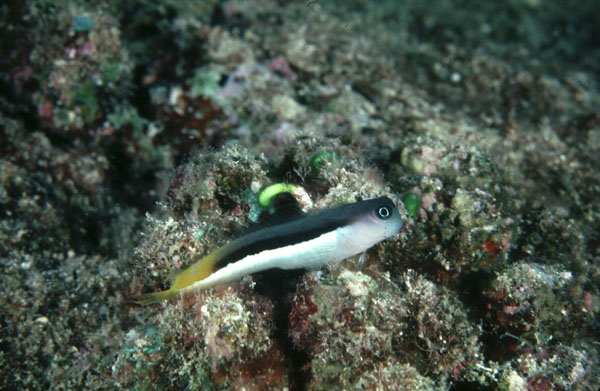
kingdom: Animalia
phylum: Chordata
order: Perciformes
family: Blenniidae
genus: Ecsenius
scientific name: Ecsenius bicolor
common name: Bicolor blenny
